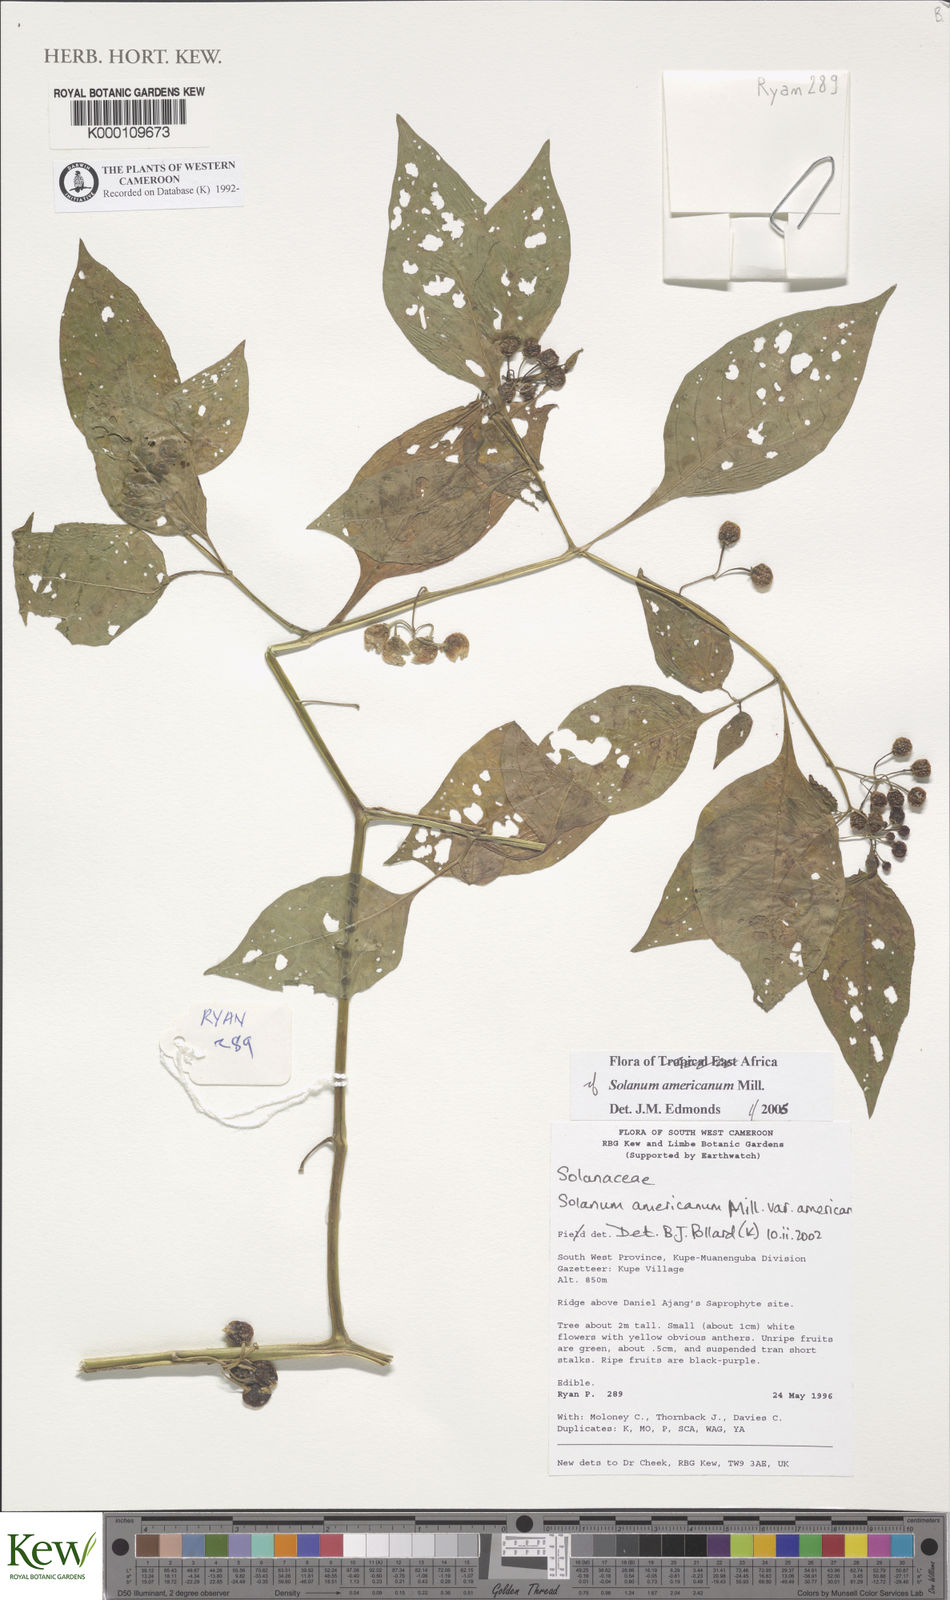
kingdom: Plantae
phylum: Tracheophyta
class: Magnoliopsida
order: Solanales
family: Solanaceae
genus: Solanum
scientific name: Solanum americanum
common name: American black nightshade
